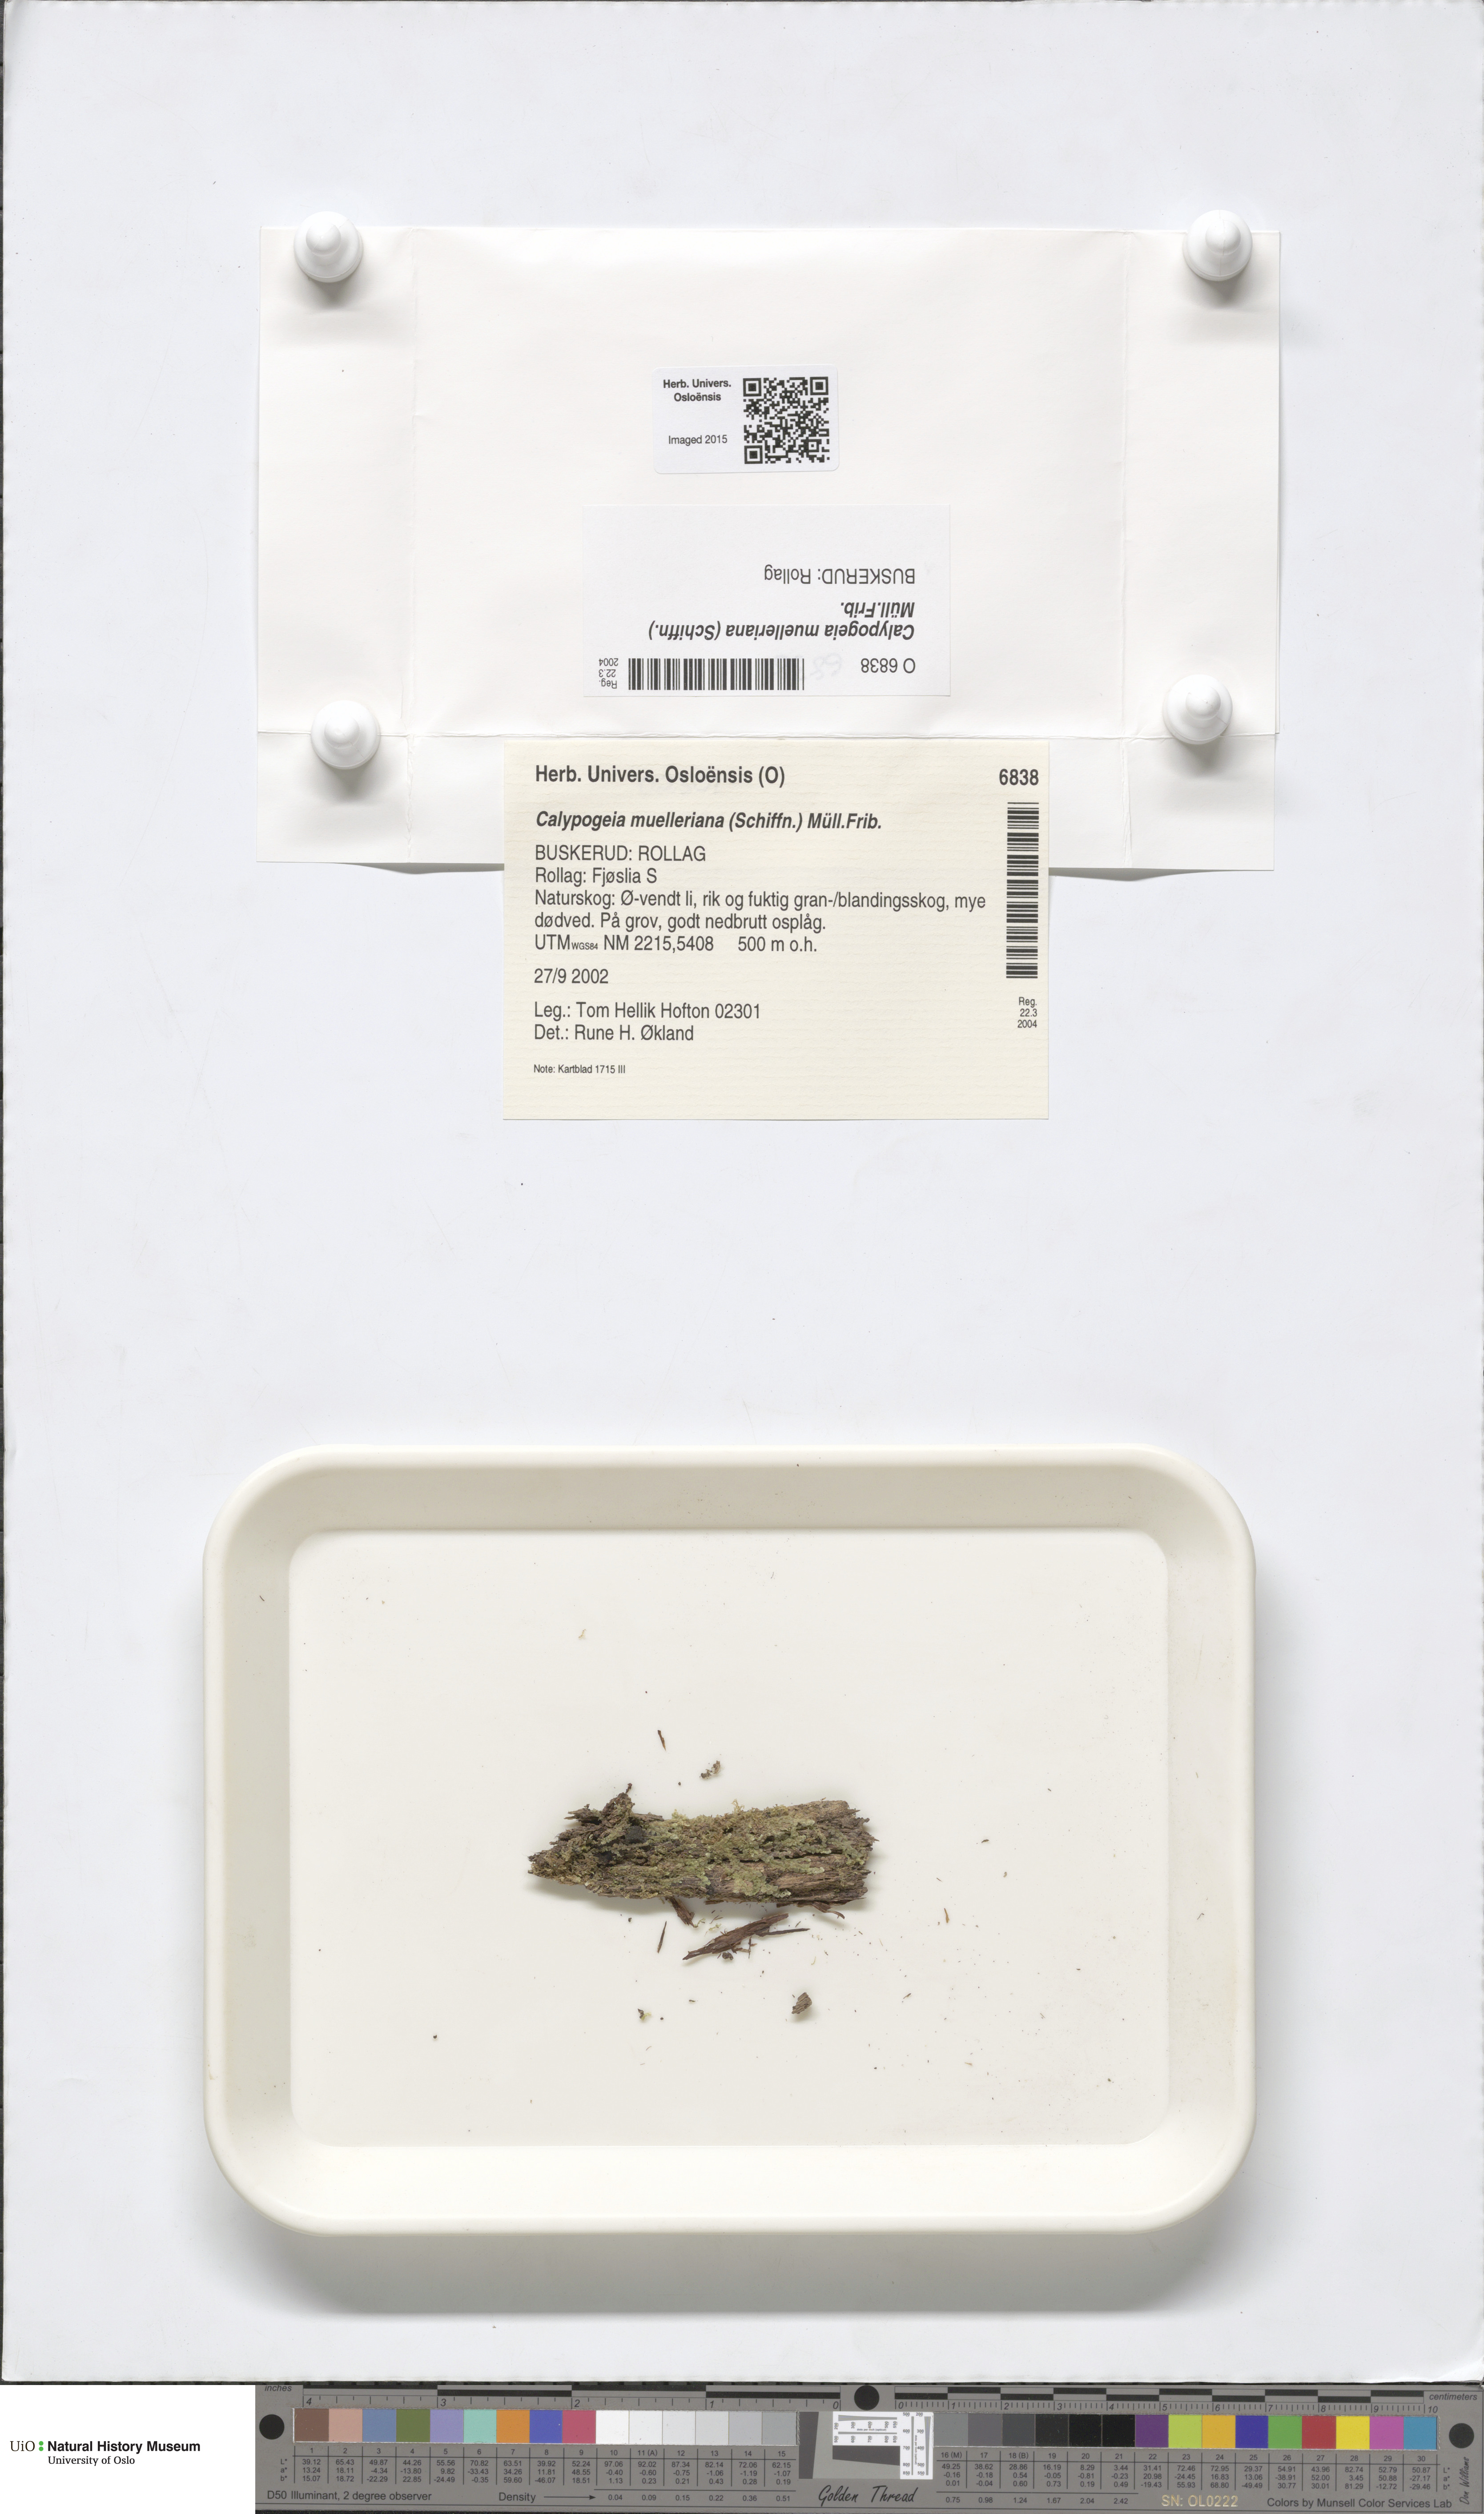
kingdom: Plantae
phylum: Marchantiophyta
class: Jungermanniopsida
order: Jungermanniales
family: Calypogeiaceae
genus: Calypogeia
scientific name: Calypogeia muelleriana
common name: Mueller s pouchwort
